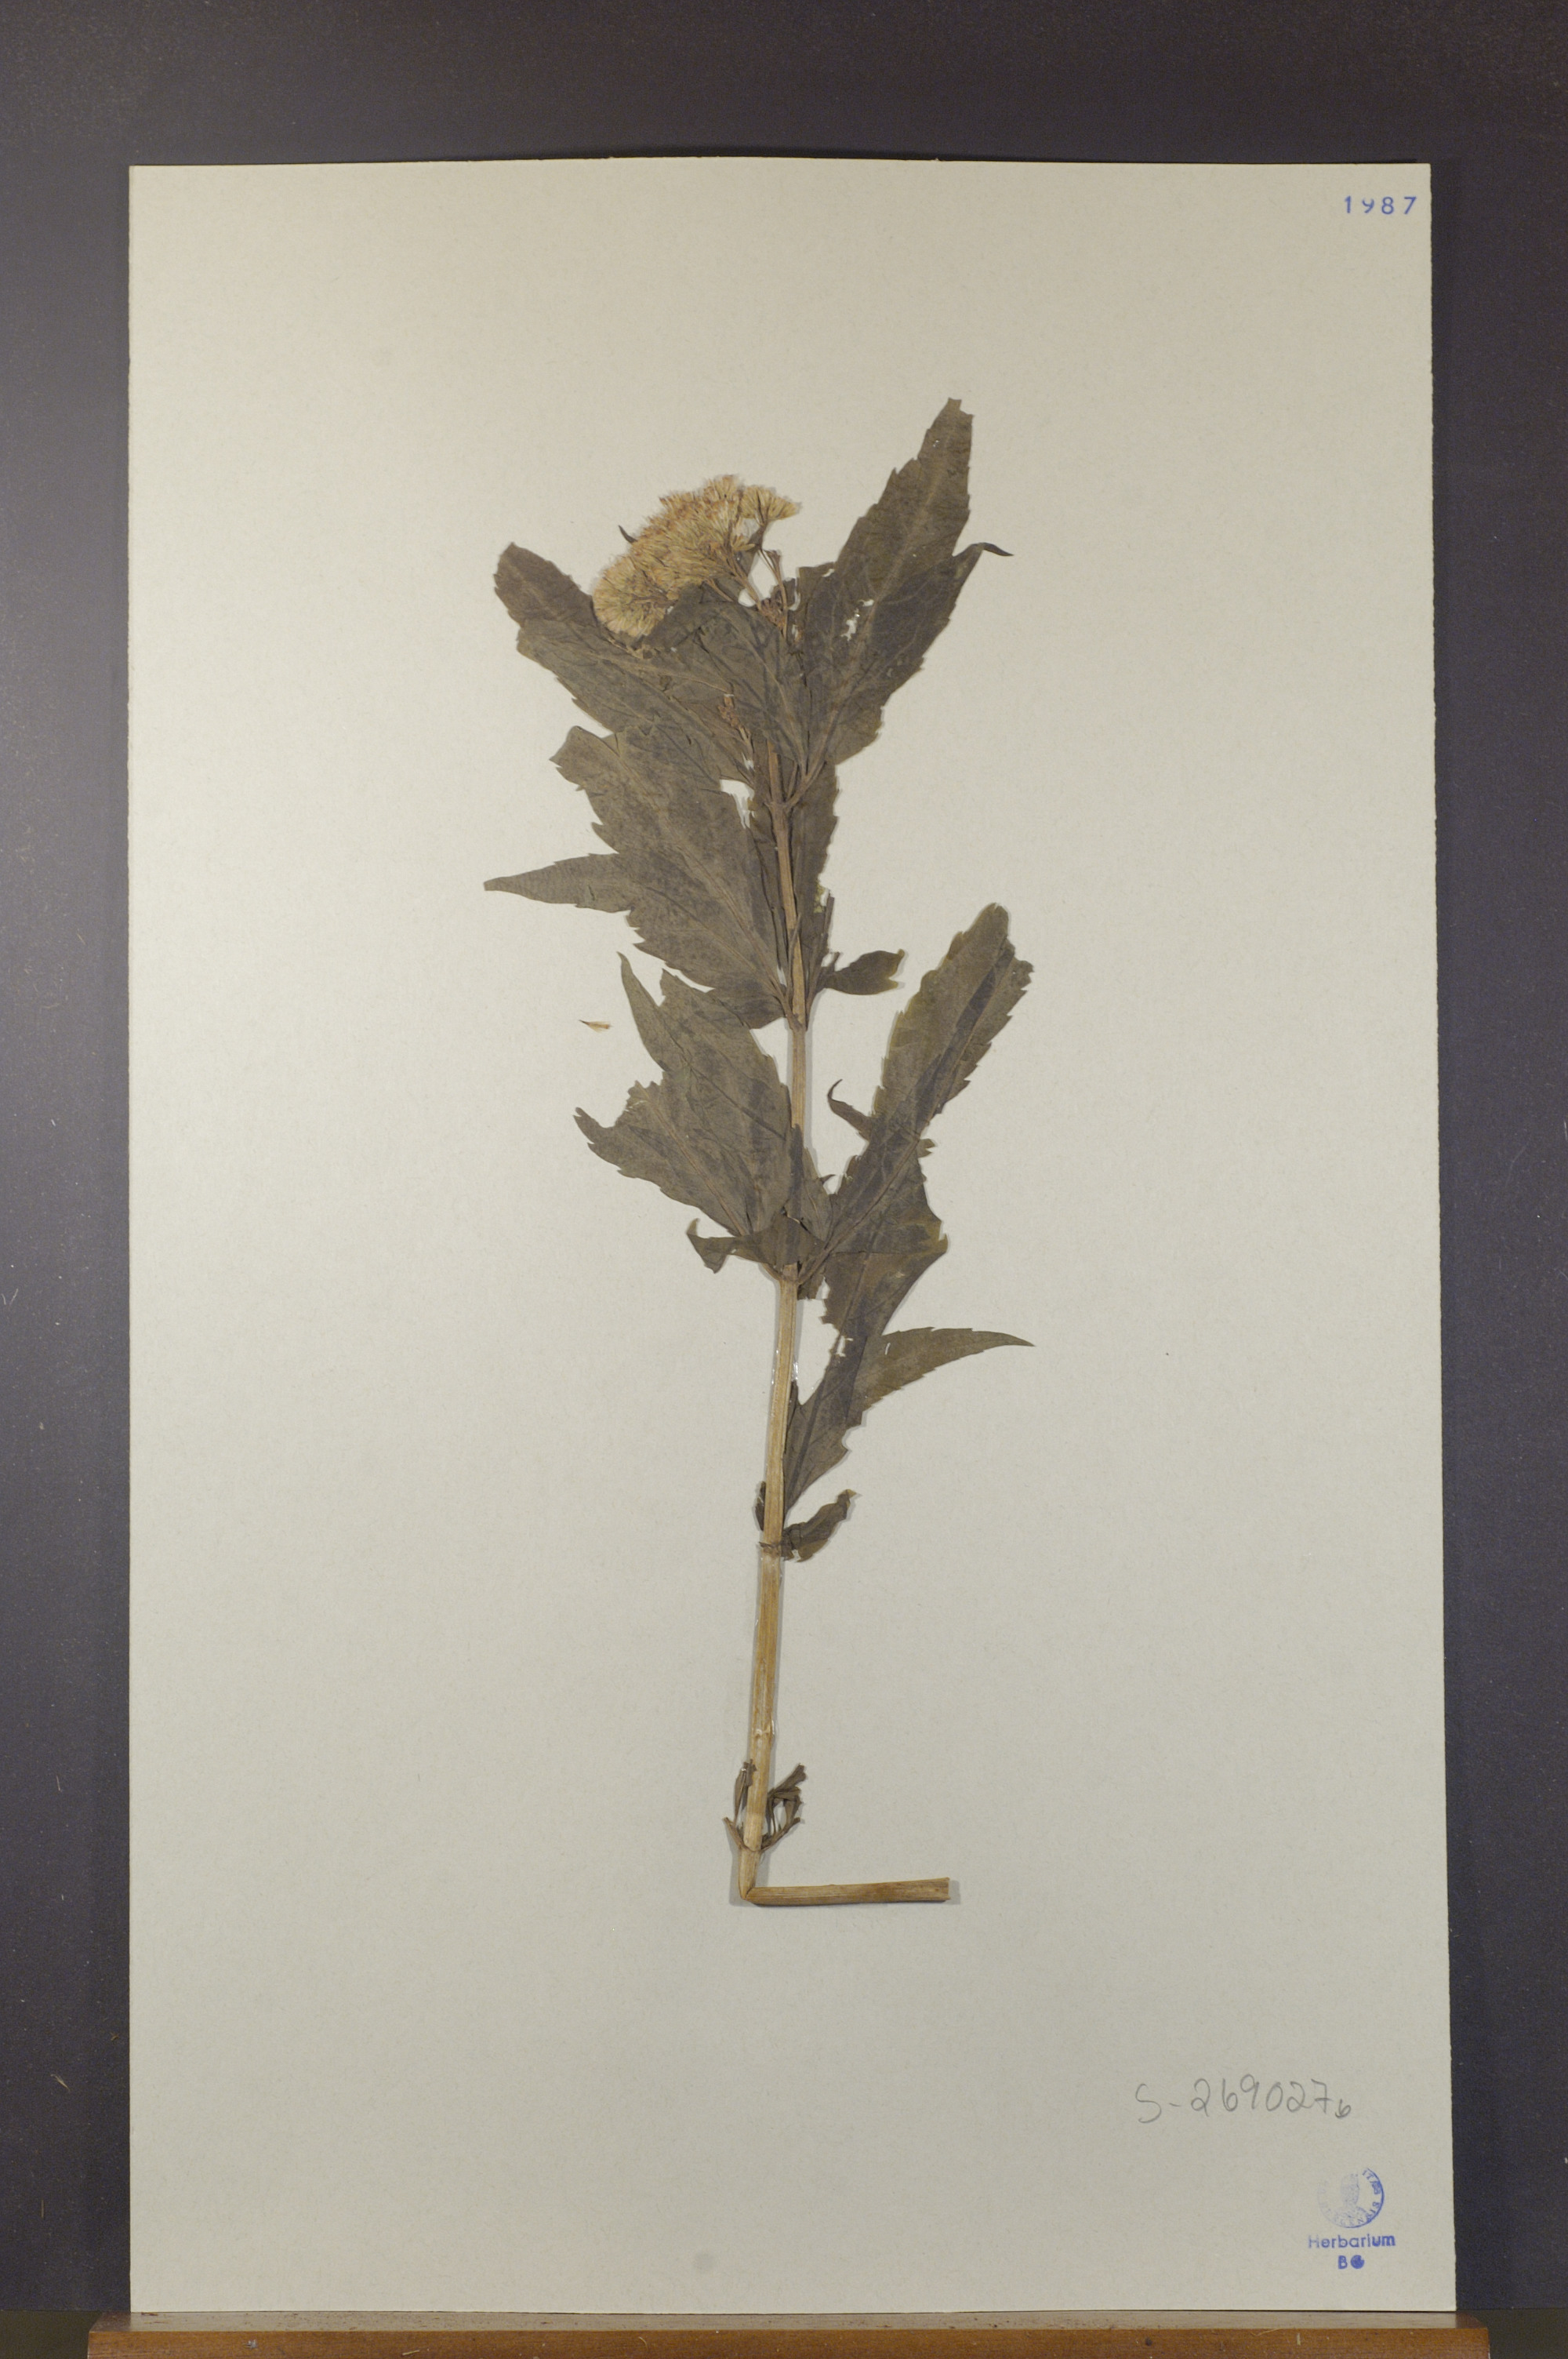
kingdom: Plantae
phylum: Tracheophyta
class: Magnoliopsida
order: Asterales
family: Asteraceae
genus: Eupatorium
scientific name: Eupatorium cannabinum
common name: Hemp-agrimony
